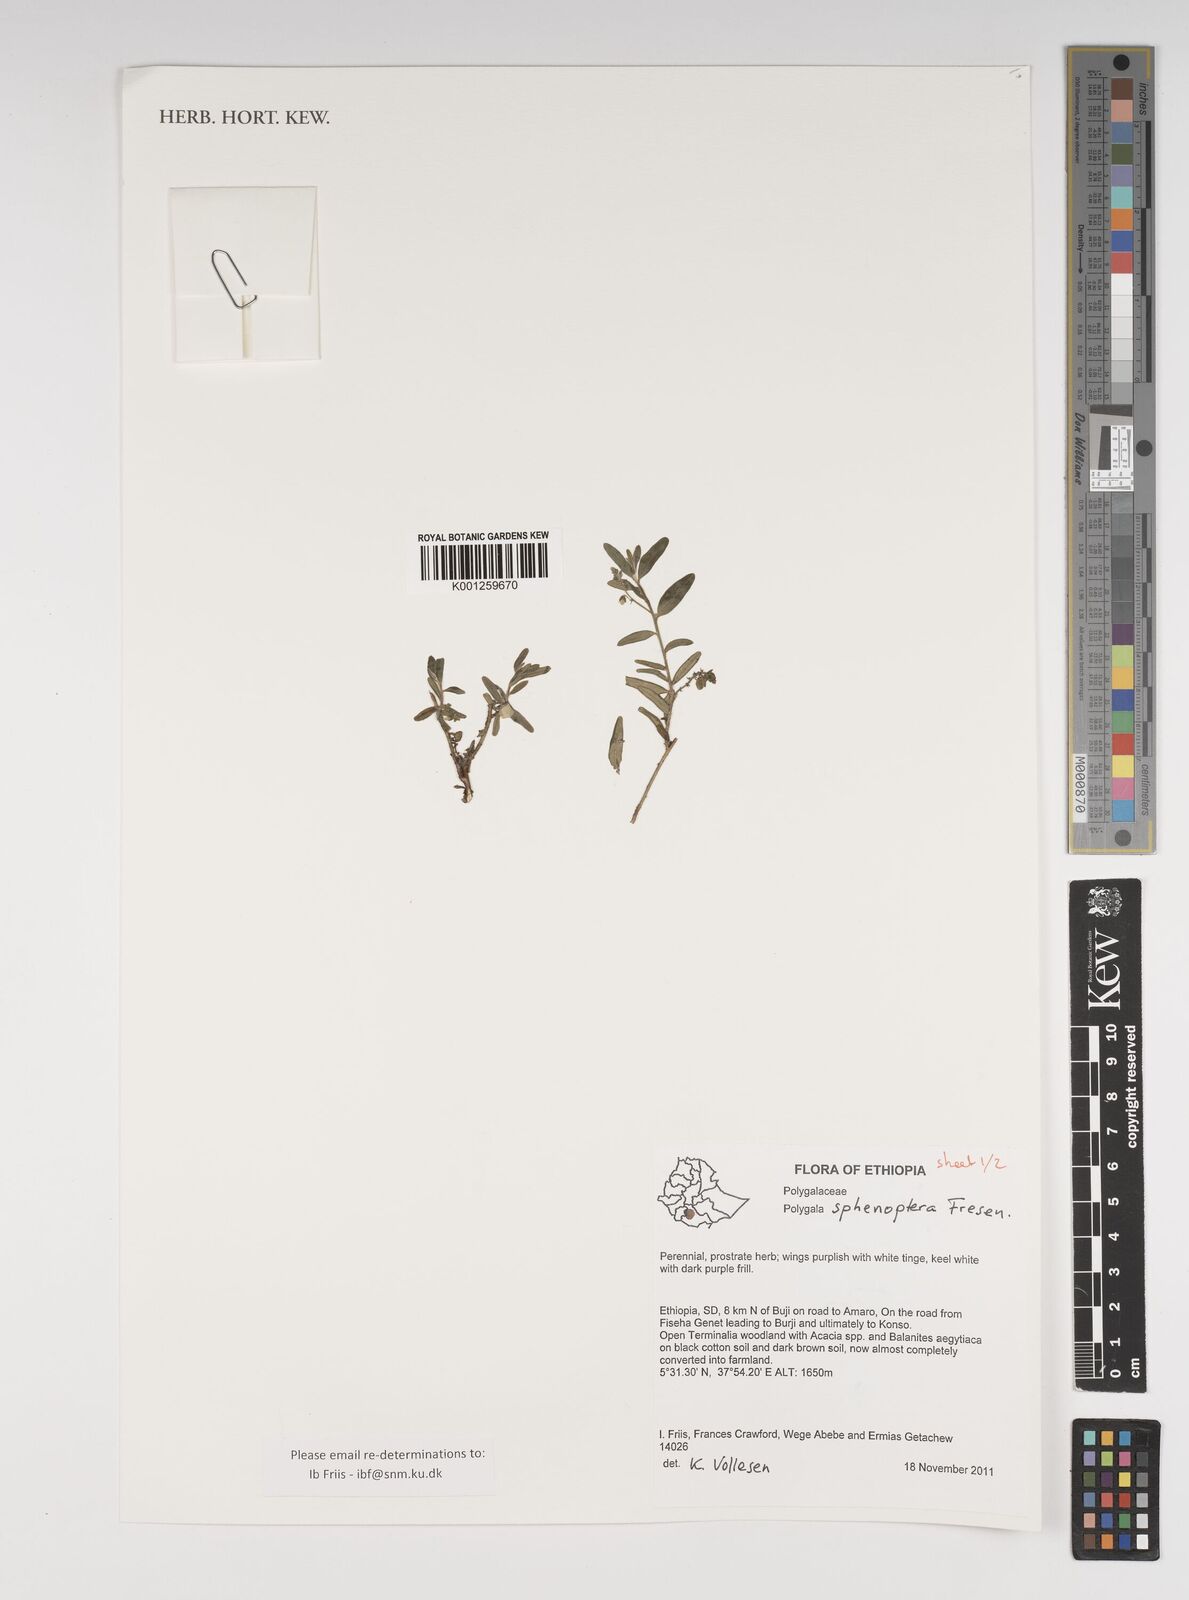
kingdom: Plantae
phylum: Tracheophyta
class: Magnoliopsida
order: Fabales
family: Polygalaceae
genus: Polygala
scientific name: Polygala sphenoptera
